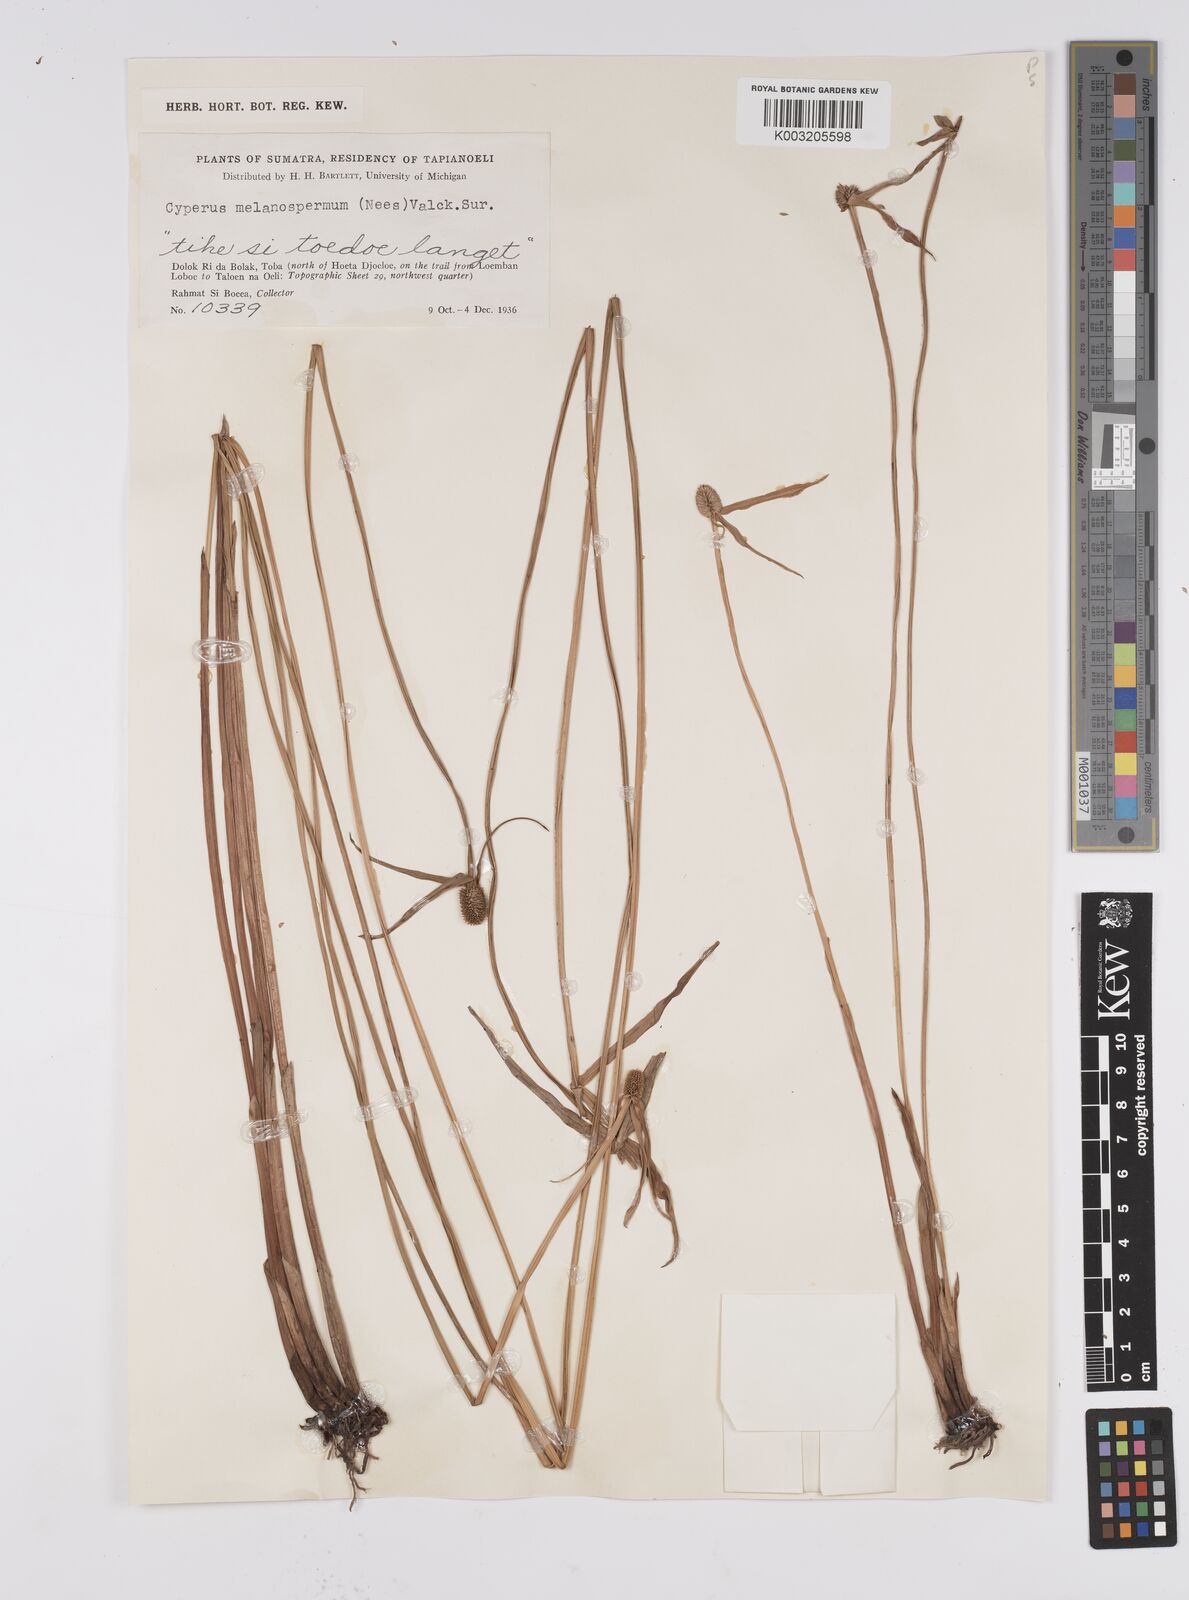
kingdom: Plantae
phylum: Tracheophyta
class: Liliopsida
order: Poales
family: Cyperaceae
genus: Cyperus
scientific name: Cyperus melanospermus
